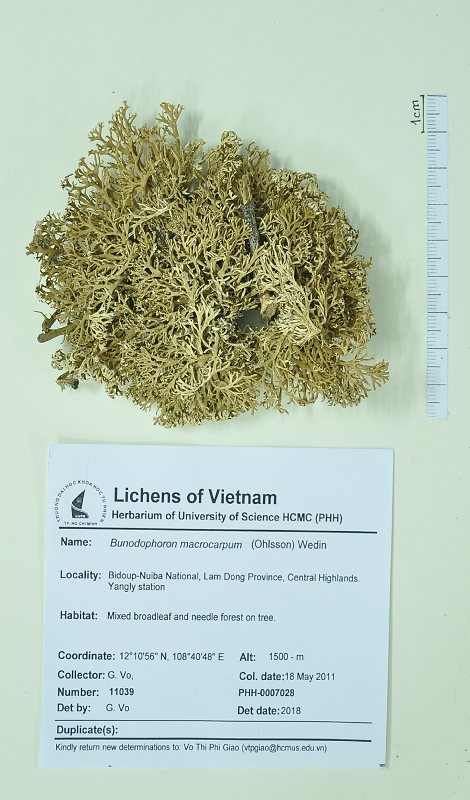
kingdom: Fungi
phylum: Ascomycota
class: Lecanoromycetes
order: Lecanorales
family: Sphaerophoraceae
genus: Bunodophoron
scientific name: Bunodophoron macrocarpum
